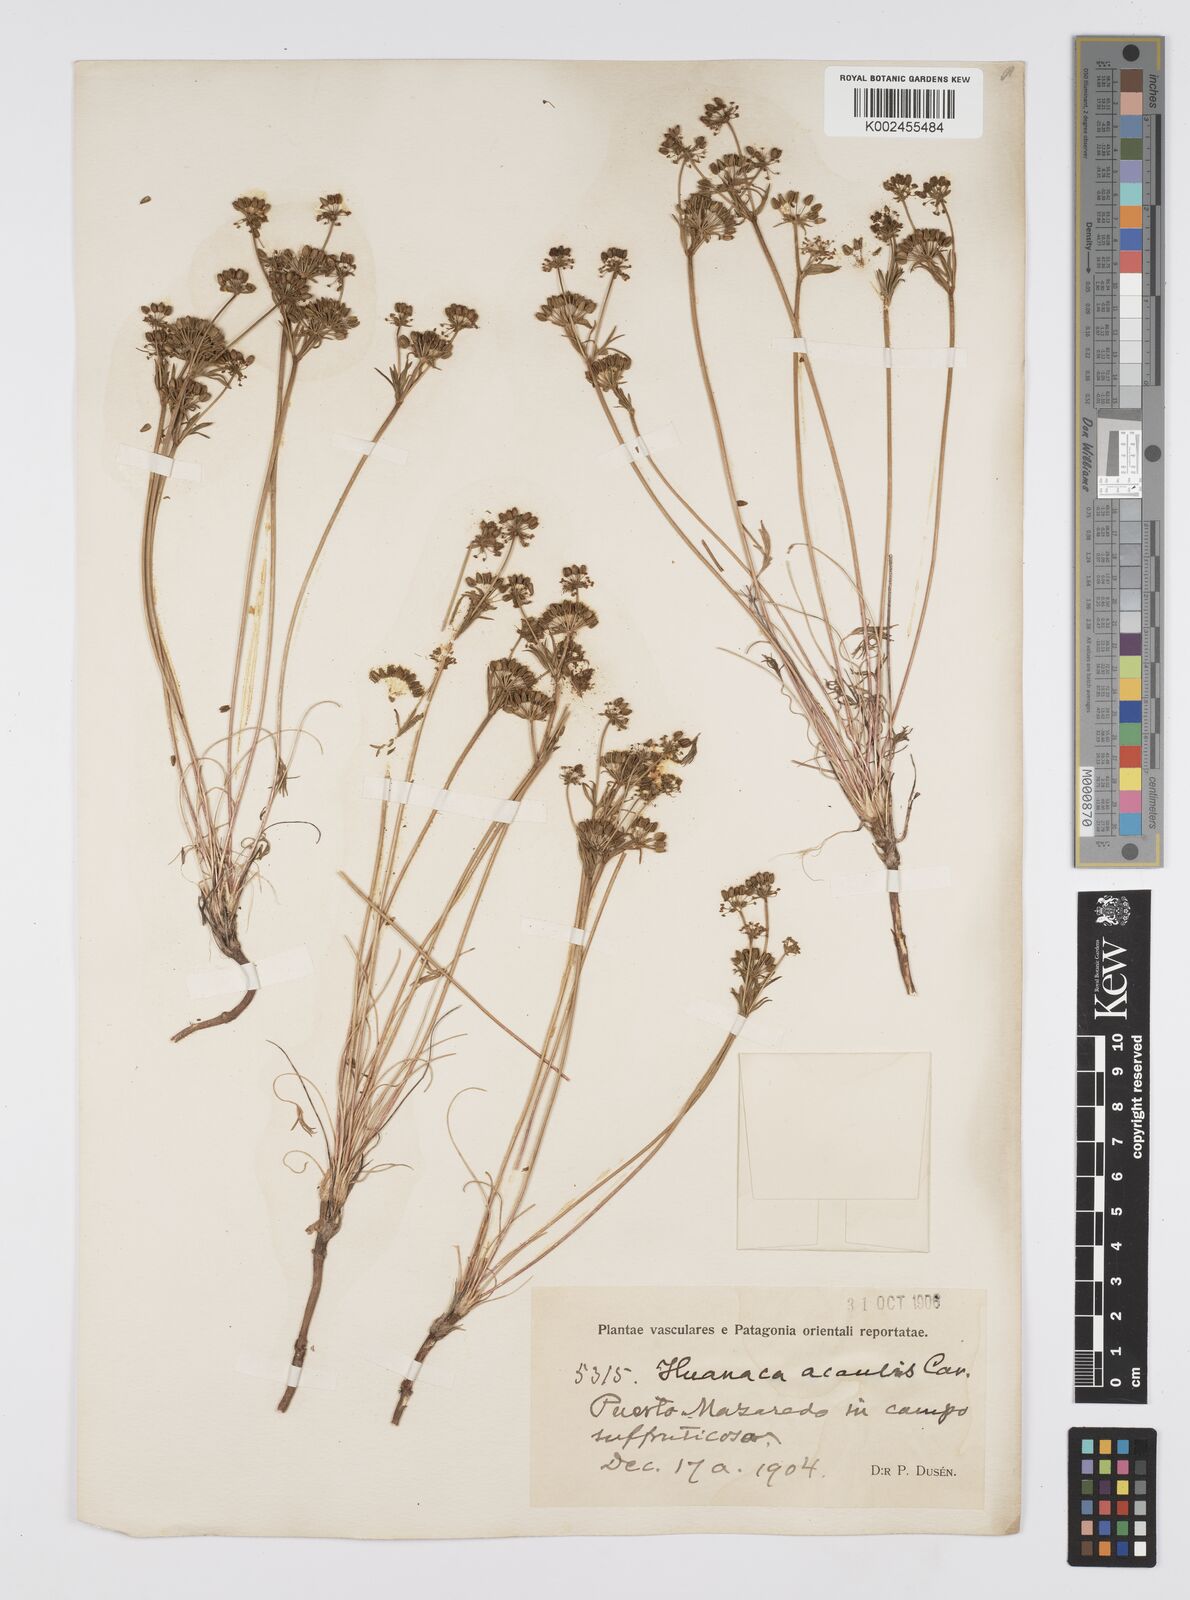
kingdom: Plantae
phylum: Tracheophyta
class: Magnoliopsida
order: Apiales
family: Apiaceae
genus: Azorella
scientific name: Azorella acaulis
